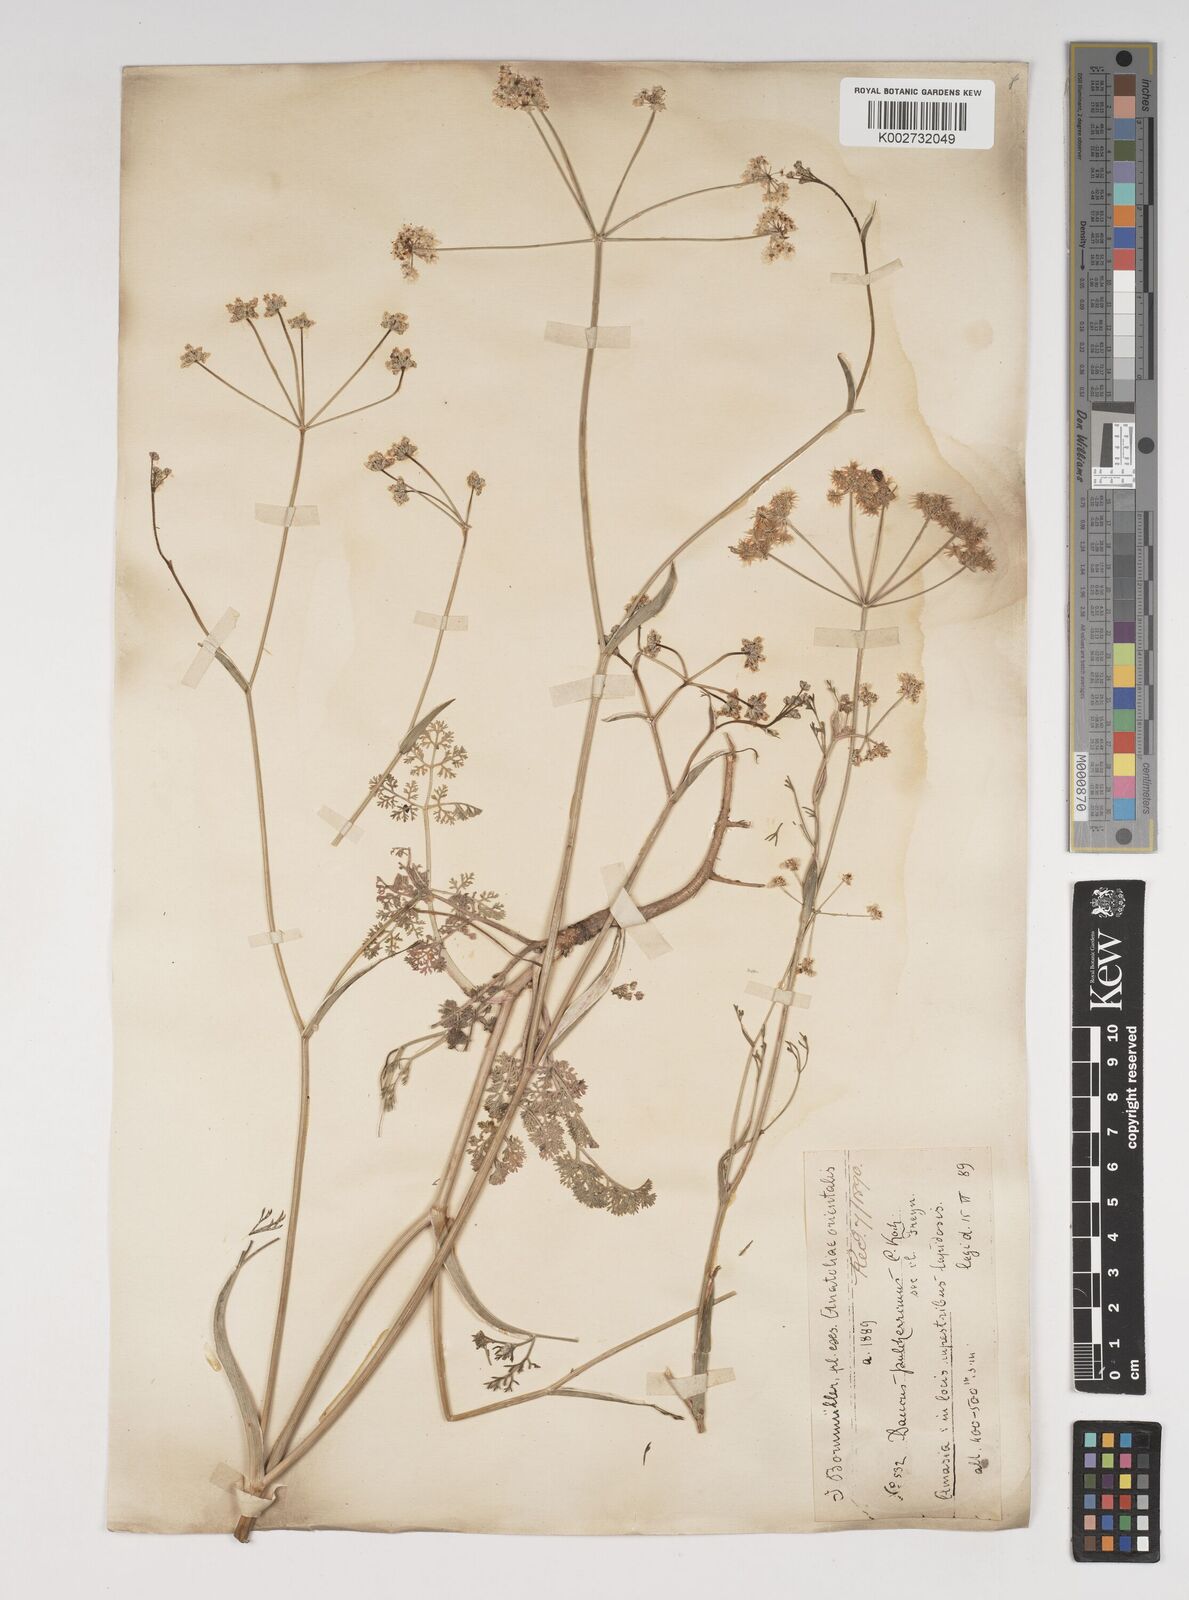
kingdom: Plantae
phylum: Tracheophyta
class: Magnoliopsida
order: Apiales
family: Apiaceae
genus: Astrodaucus
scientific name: Astrodaucus
